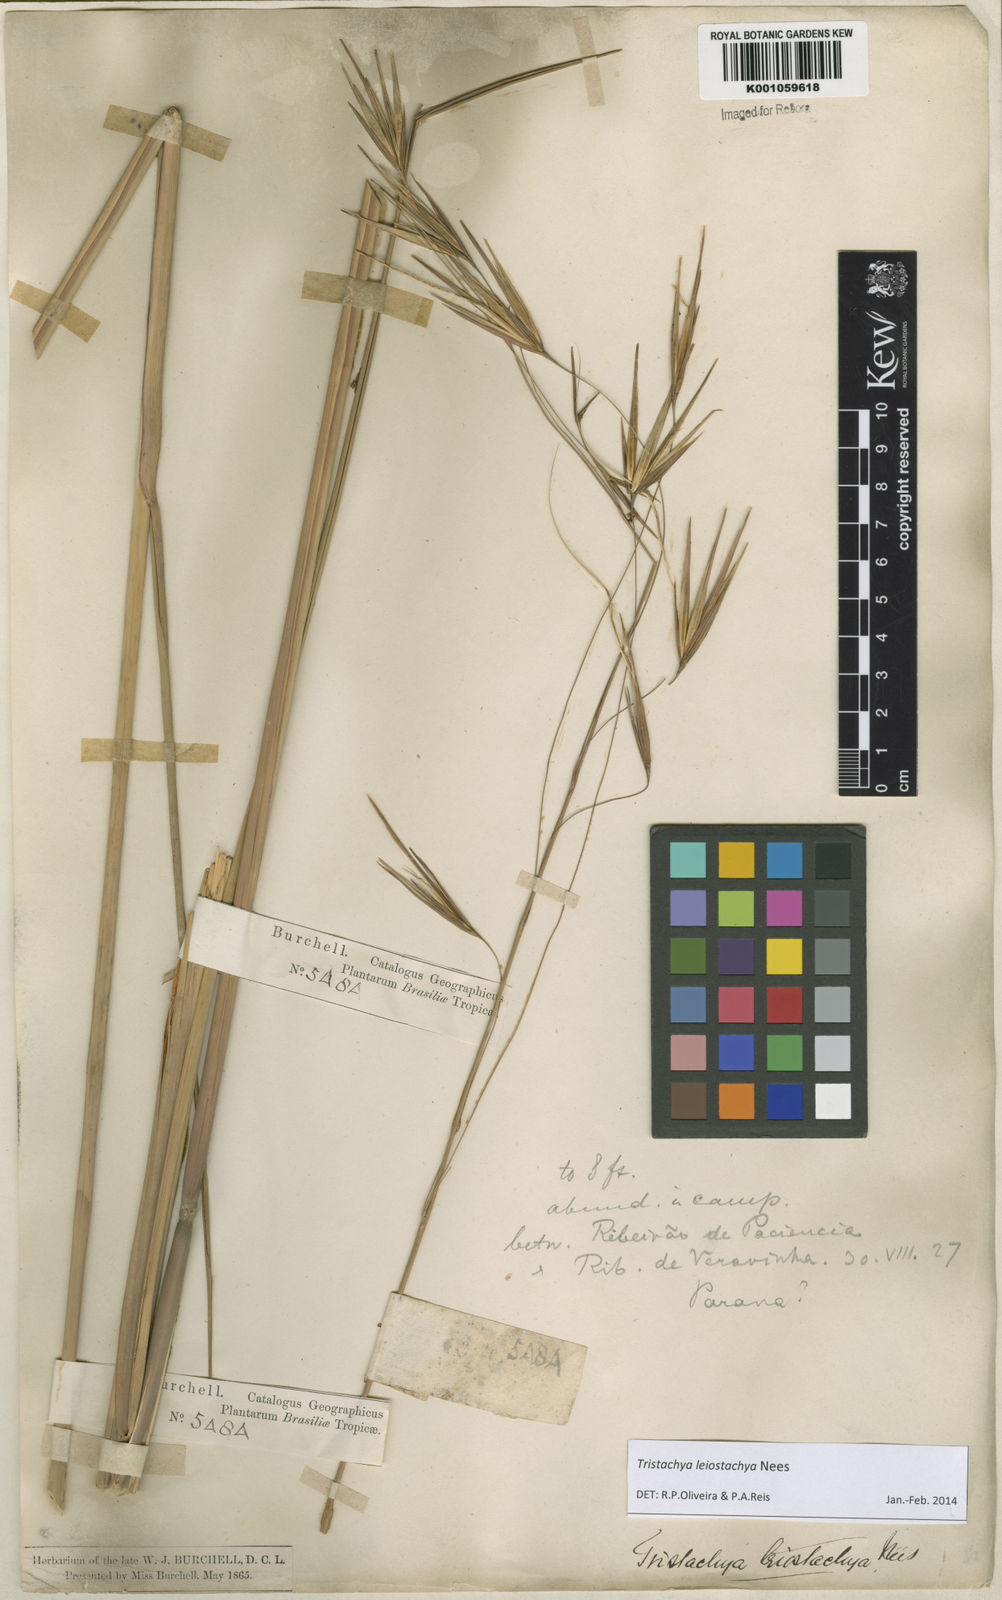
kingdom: Plantae
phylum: Tracheophyta
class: Liliopsida
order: Poales
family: Poaceae
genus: Tristachya
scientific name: Tristachya leiostachya
